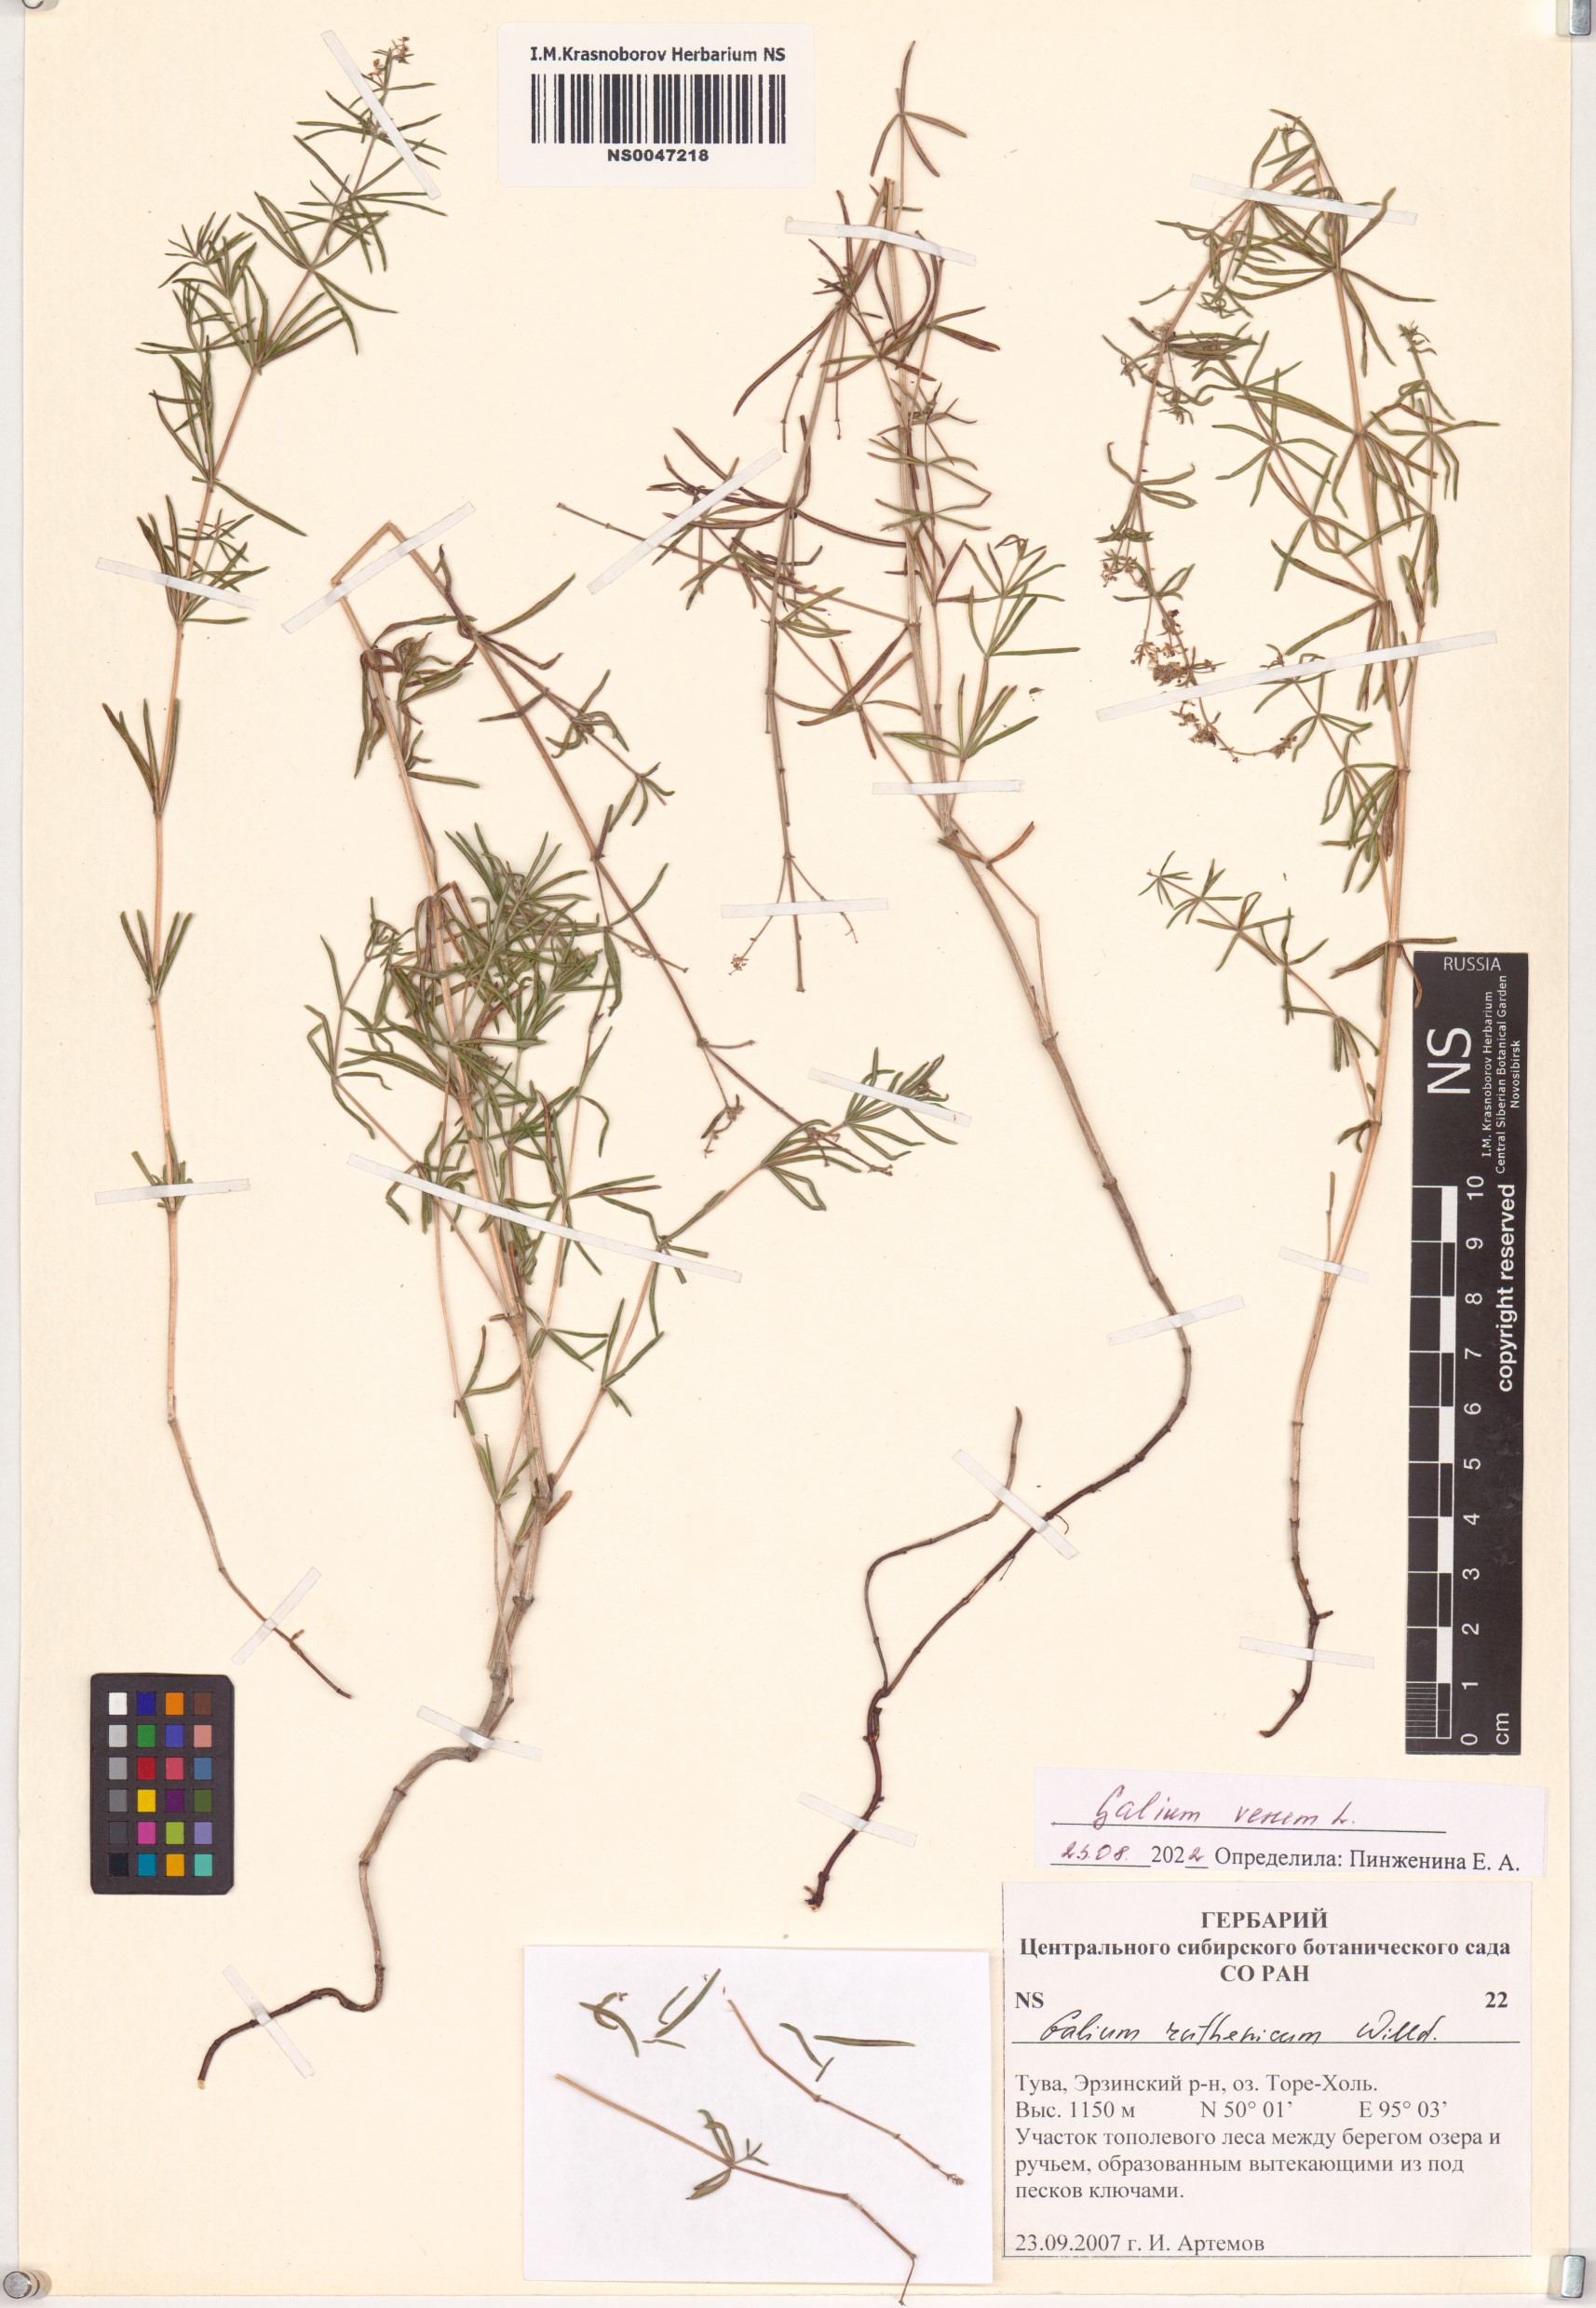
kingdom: Plantae
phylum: Tracheophyta
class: Magnoliopsida
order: Gentianales
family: Rubiaceae
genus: Galium
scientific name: Galium verum
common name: Lady's bedstraw
